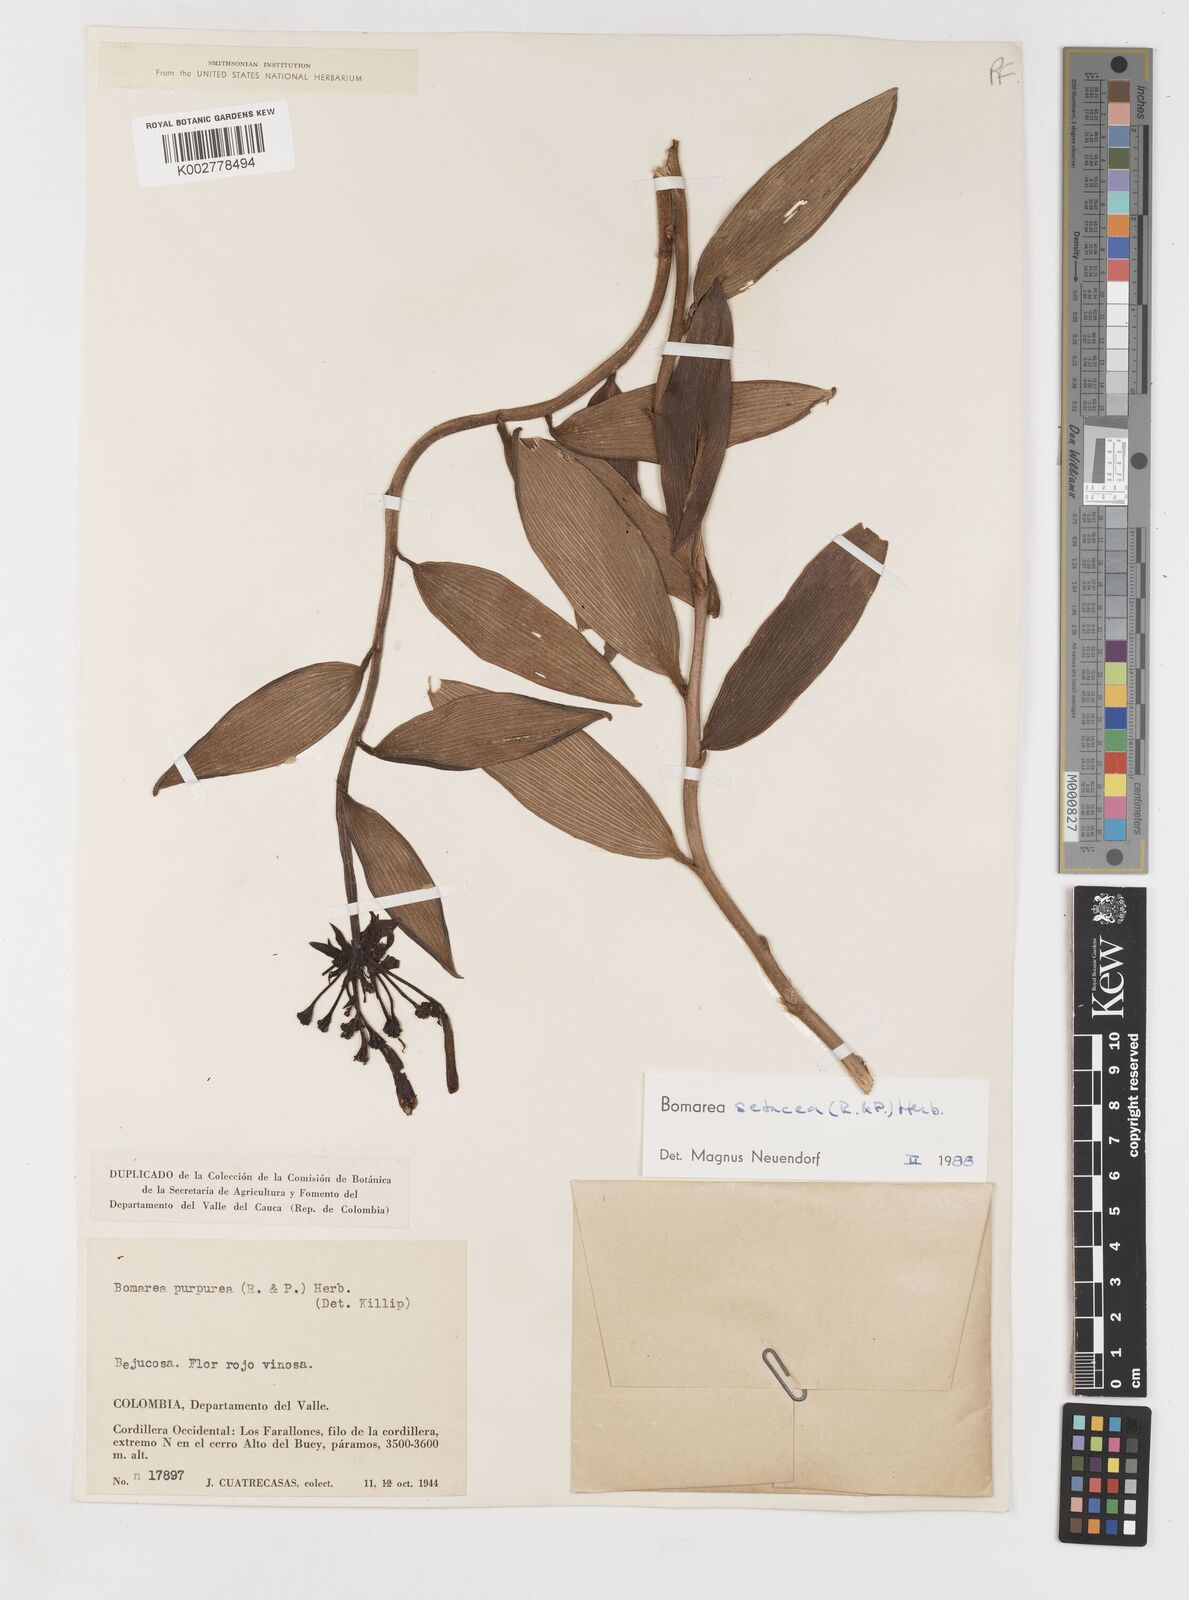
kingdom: Plantae
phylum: Tracheophyta
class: Liliopsida
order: Liliales
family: Alstroemeriaceae
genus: Bomarea
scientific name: Bomarea setacea
